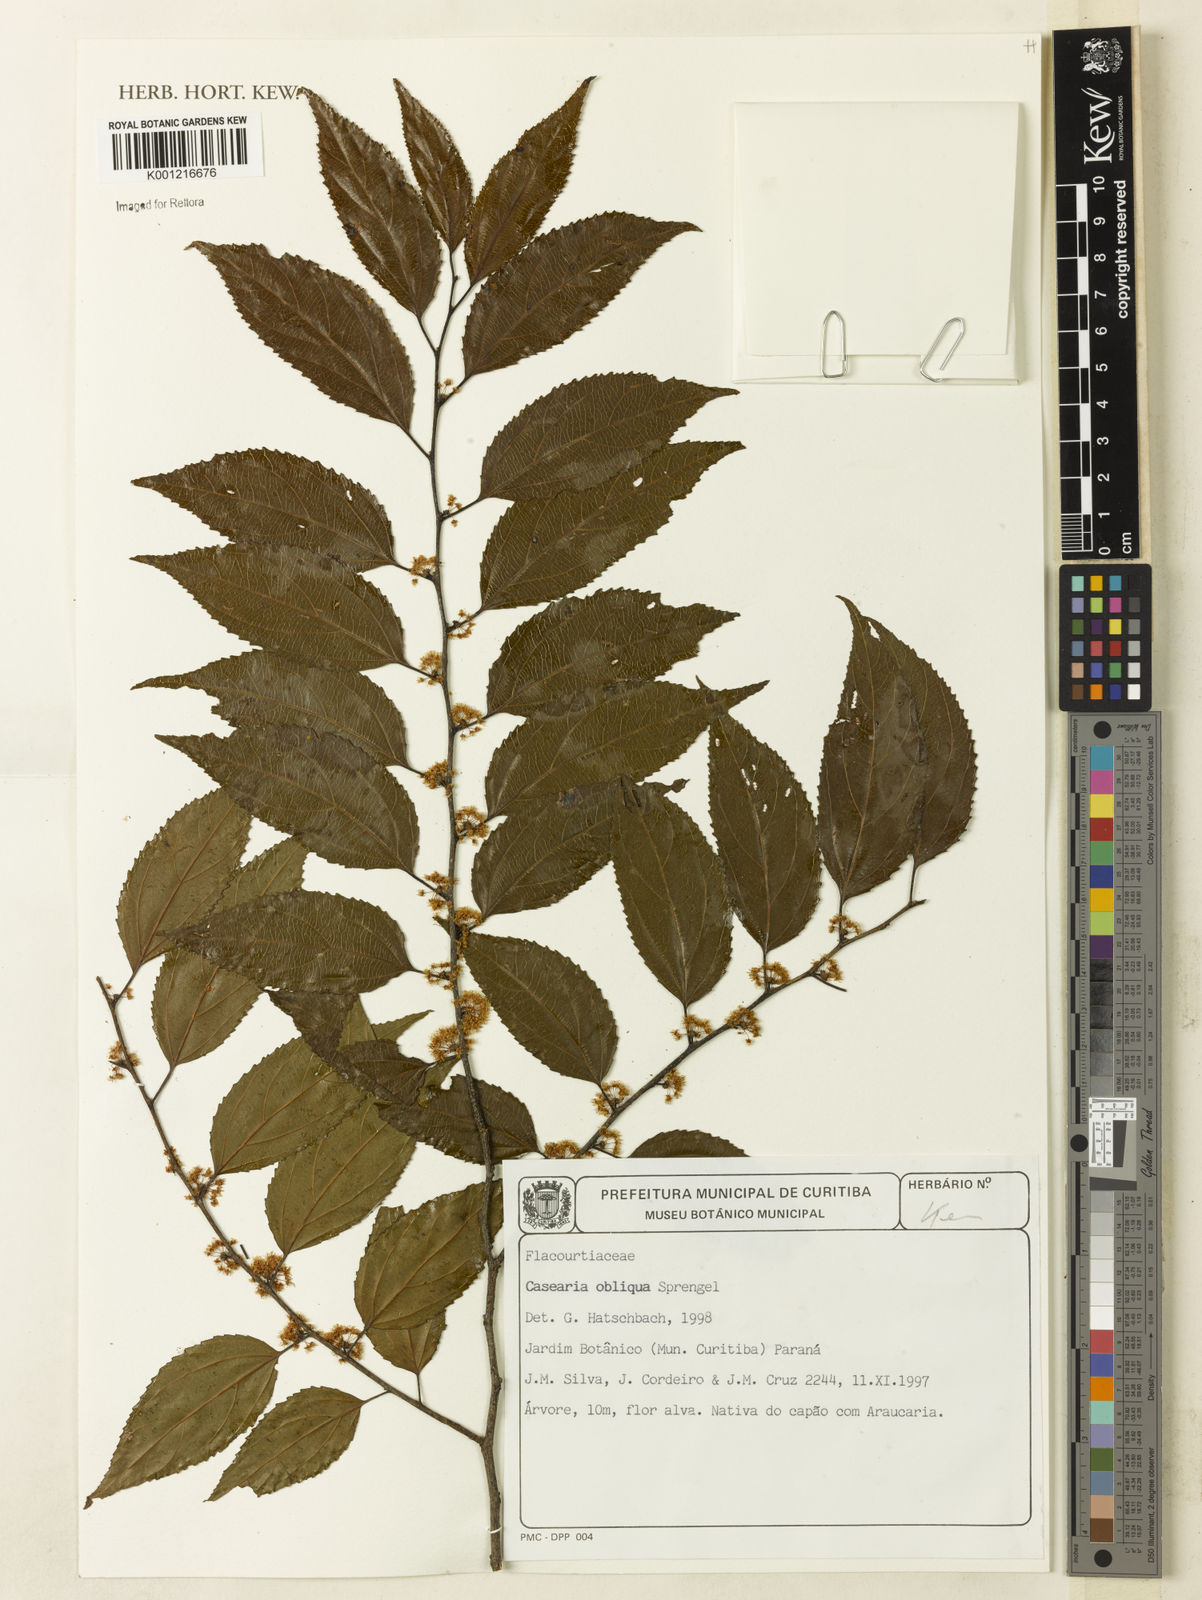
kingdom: Plantae
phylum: Tracheophyta
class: Magnoliopsida
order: Malpighiales
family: Salicaceae
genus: Casearia
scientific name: Casearia obliqua
